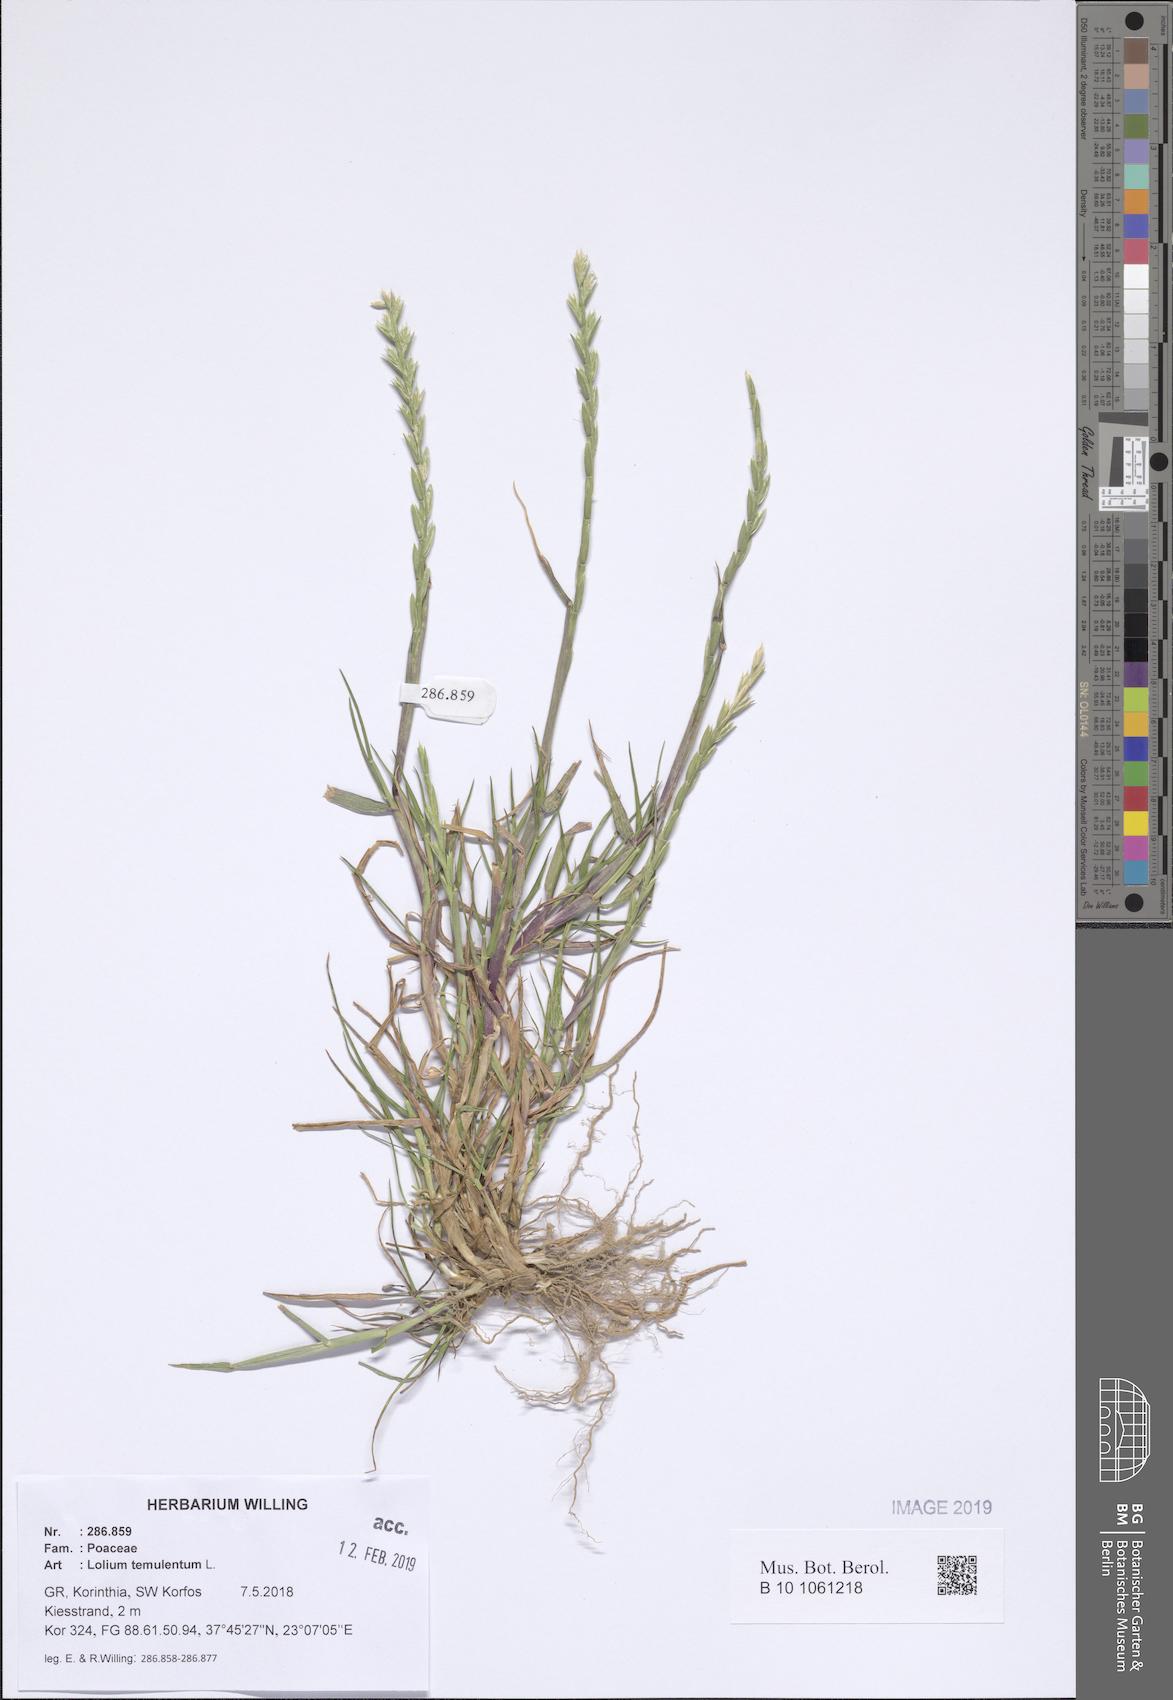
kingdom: Plantae
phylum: Tracheophyta
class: Liliopsida
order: Poales
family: Poaceae
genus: Lolium
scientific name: Lolium temulentum
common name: Darnel
